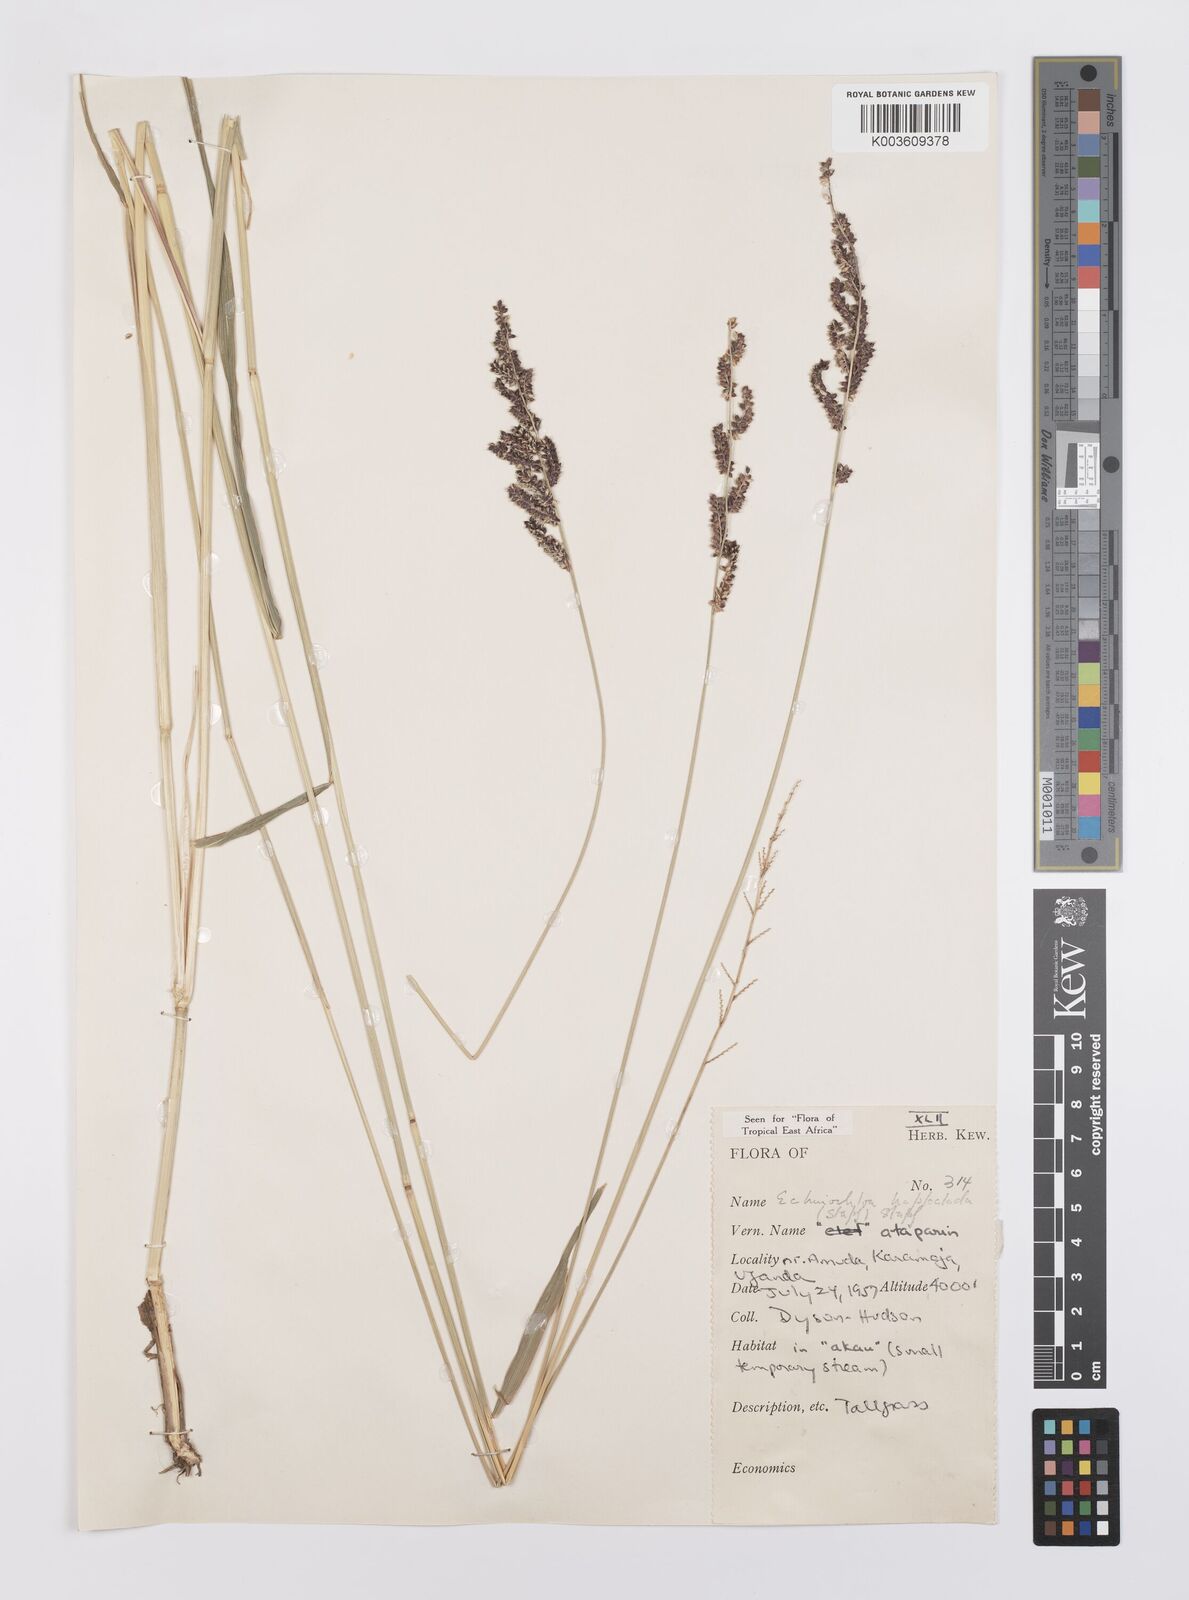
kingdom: Plantae
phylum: Tracheophyta
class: Liliopsida
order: Poales
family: Poaceae
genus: Echinochloa
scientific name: Echinochloa haploclada
